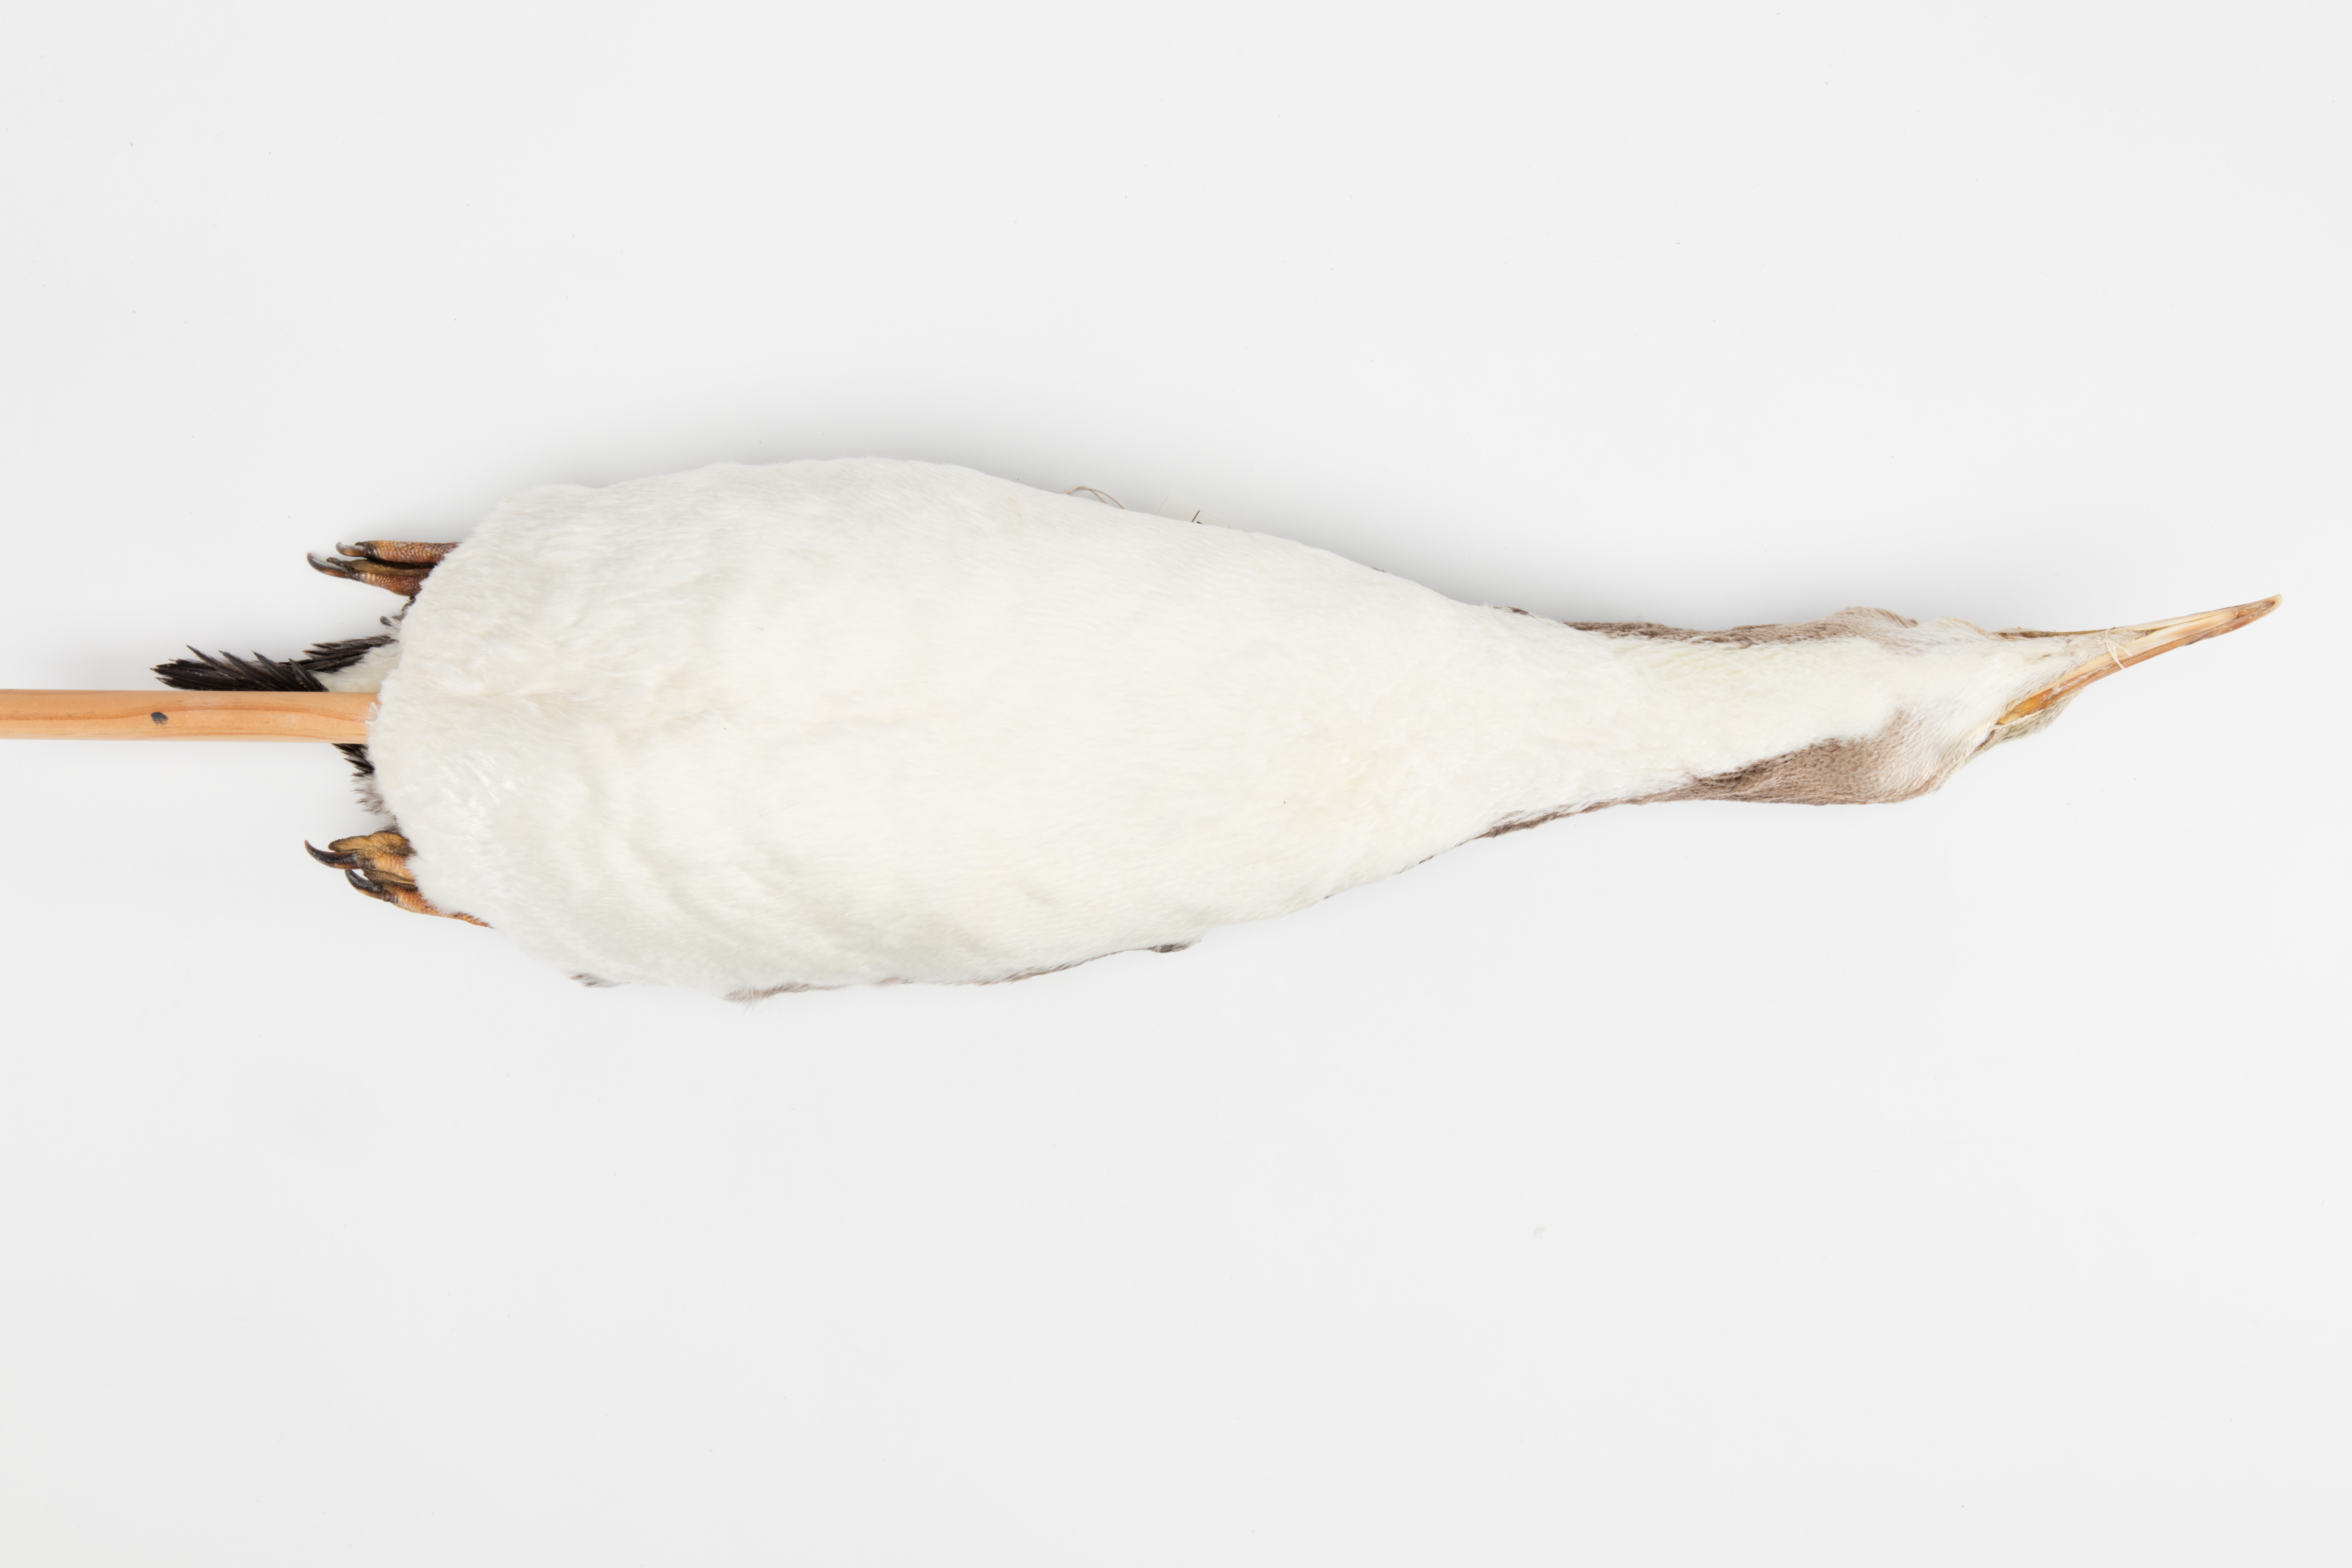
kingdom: Animalia
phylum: Chordata
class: Aves
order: Sphenisciformes
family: Spheniscidae
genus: Megadyptes
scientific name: Megadyptes antipodes
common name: Yellow-eyed penguin
